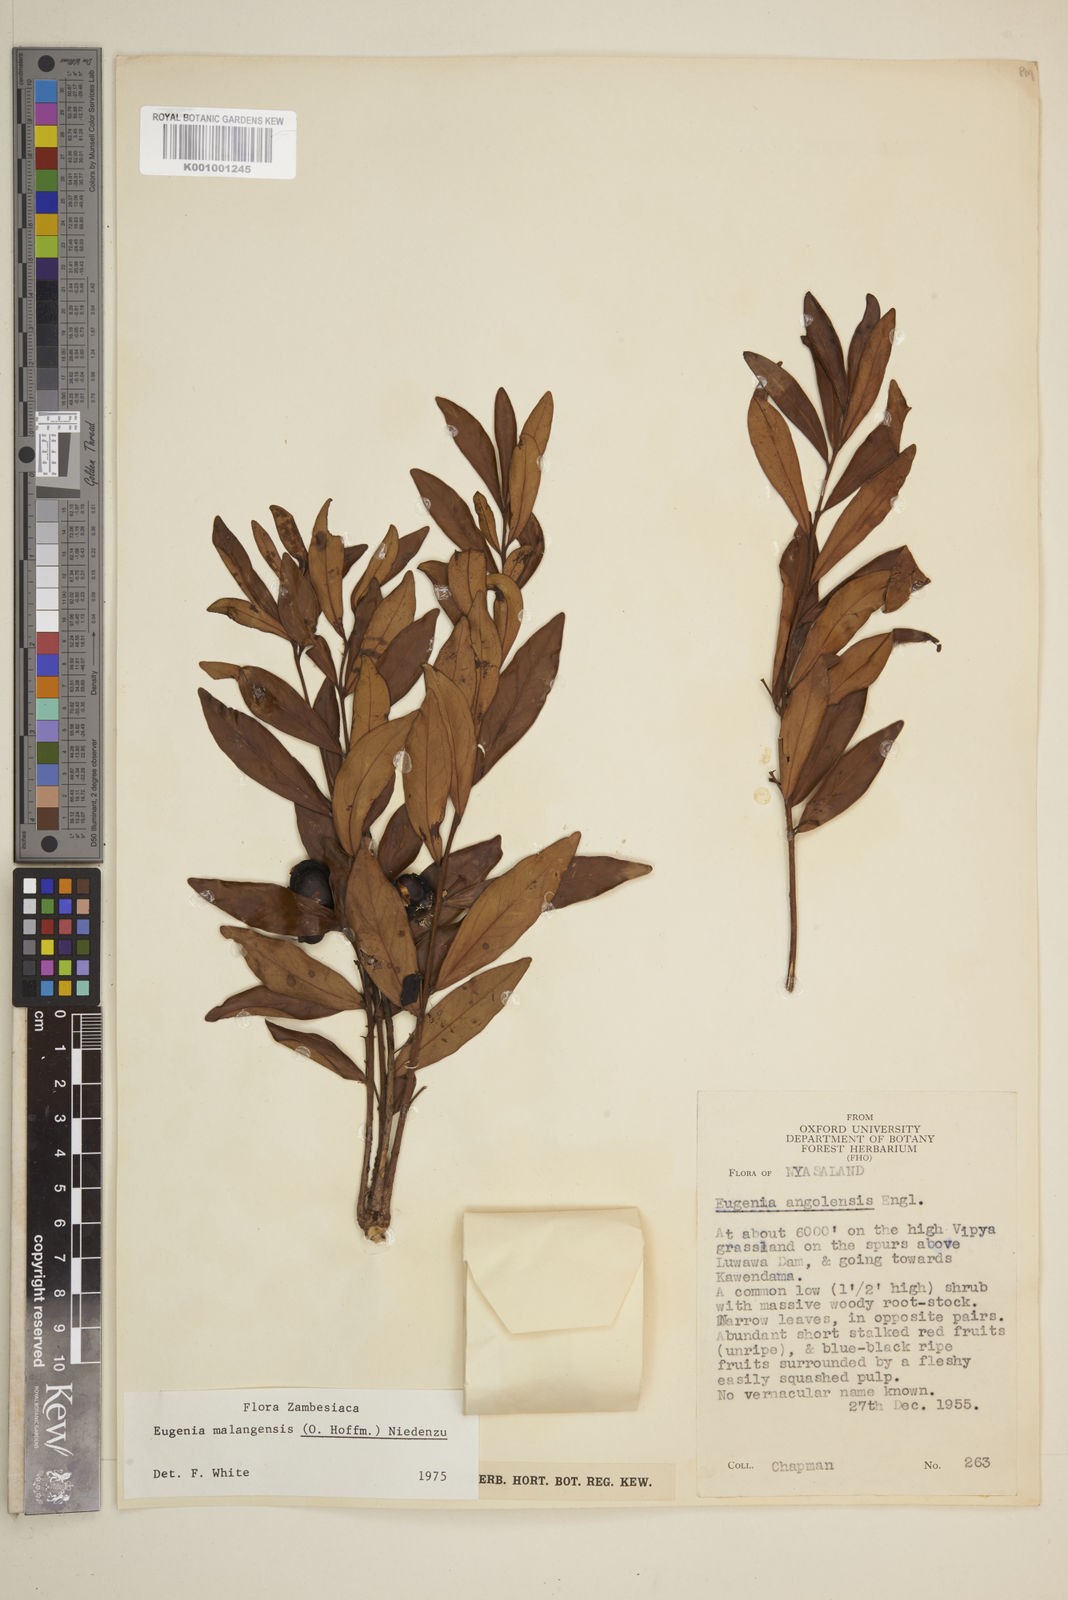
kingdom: Plantae
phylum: Tracheophyta
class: Magnoliopsida
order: Myrtales
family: Myrtaceae
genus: Eugenia
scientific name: Eugenia malangensis
